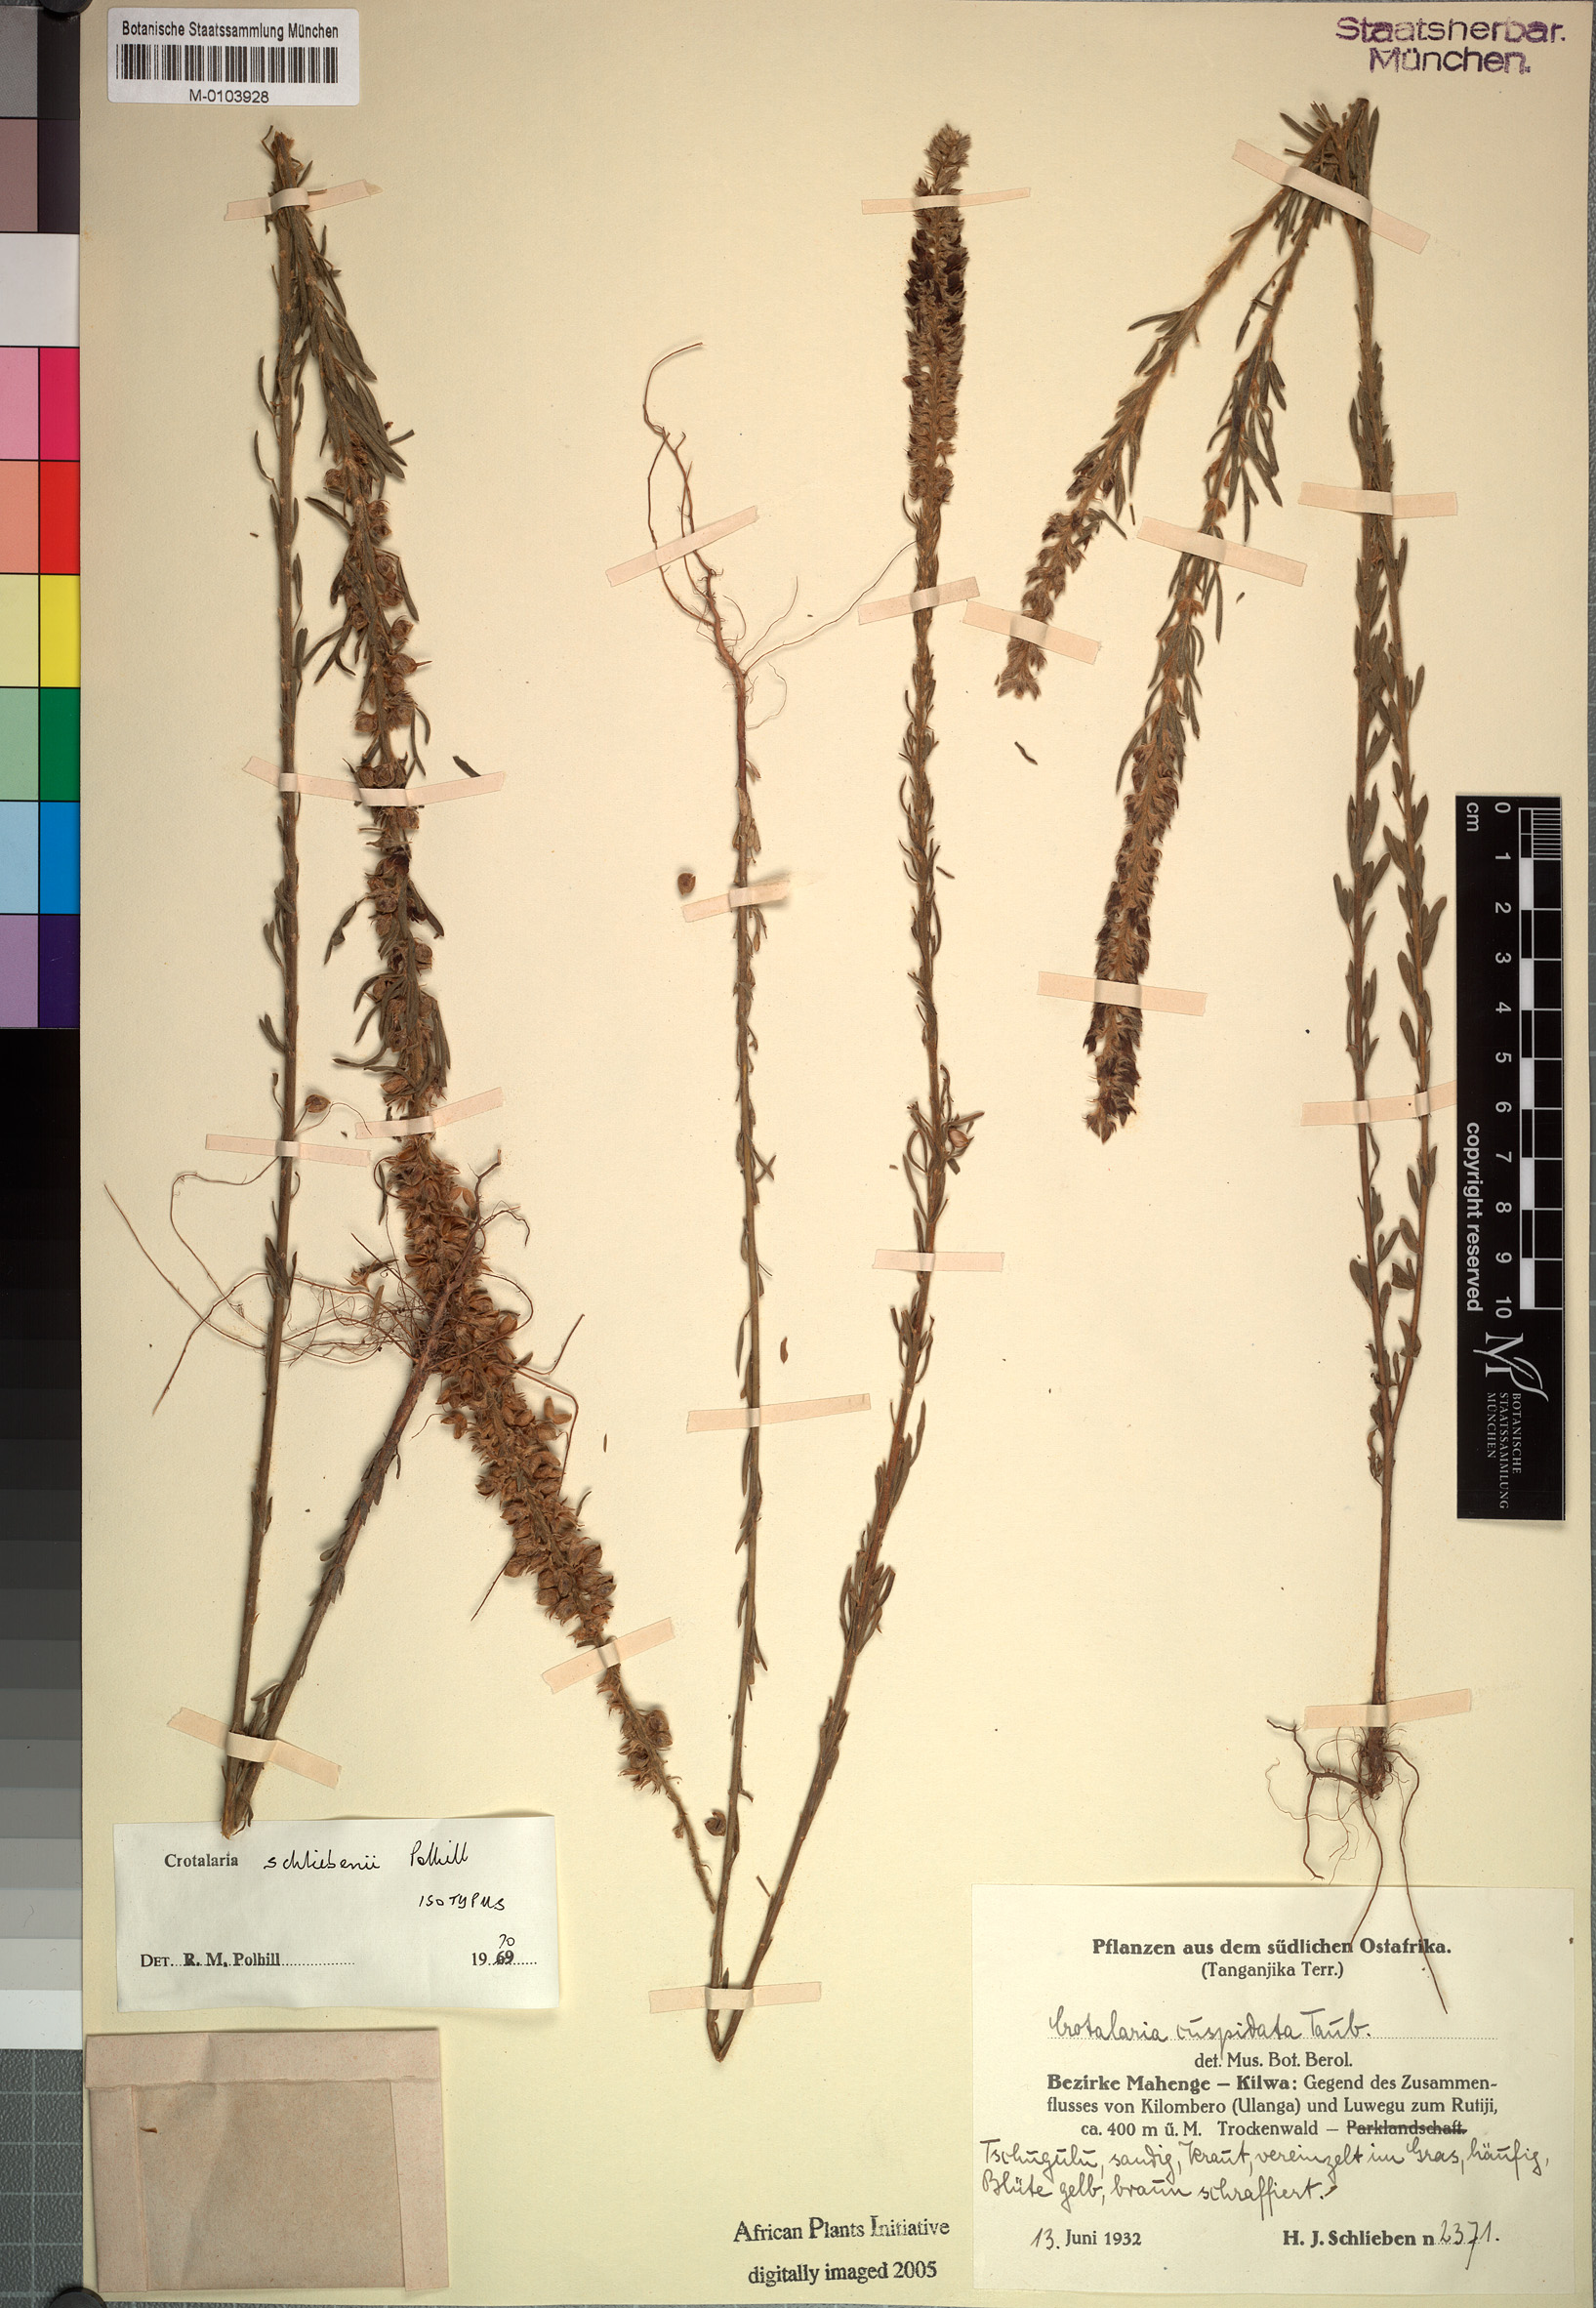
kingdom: Plantae
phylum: Tracheophyta
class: Magnoliopsida
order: Fabales
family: Fabaceae
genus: Crotalaria
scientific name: Crotalaria schliebenii
